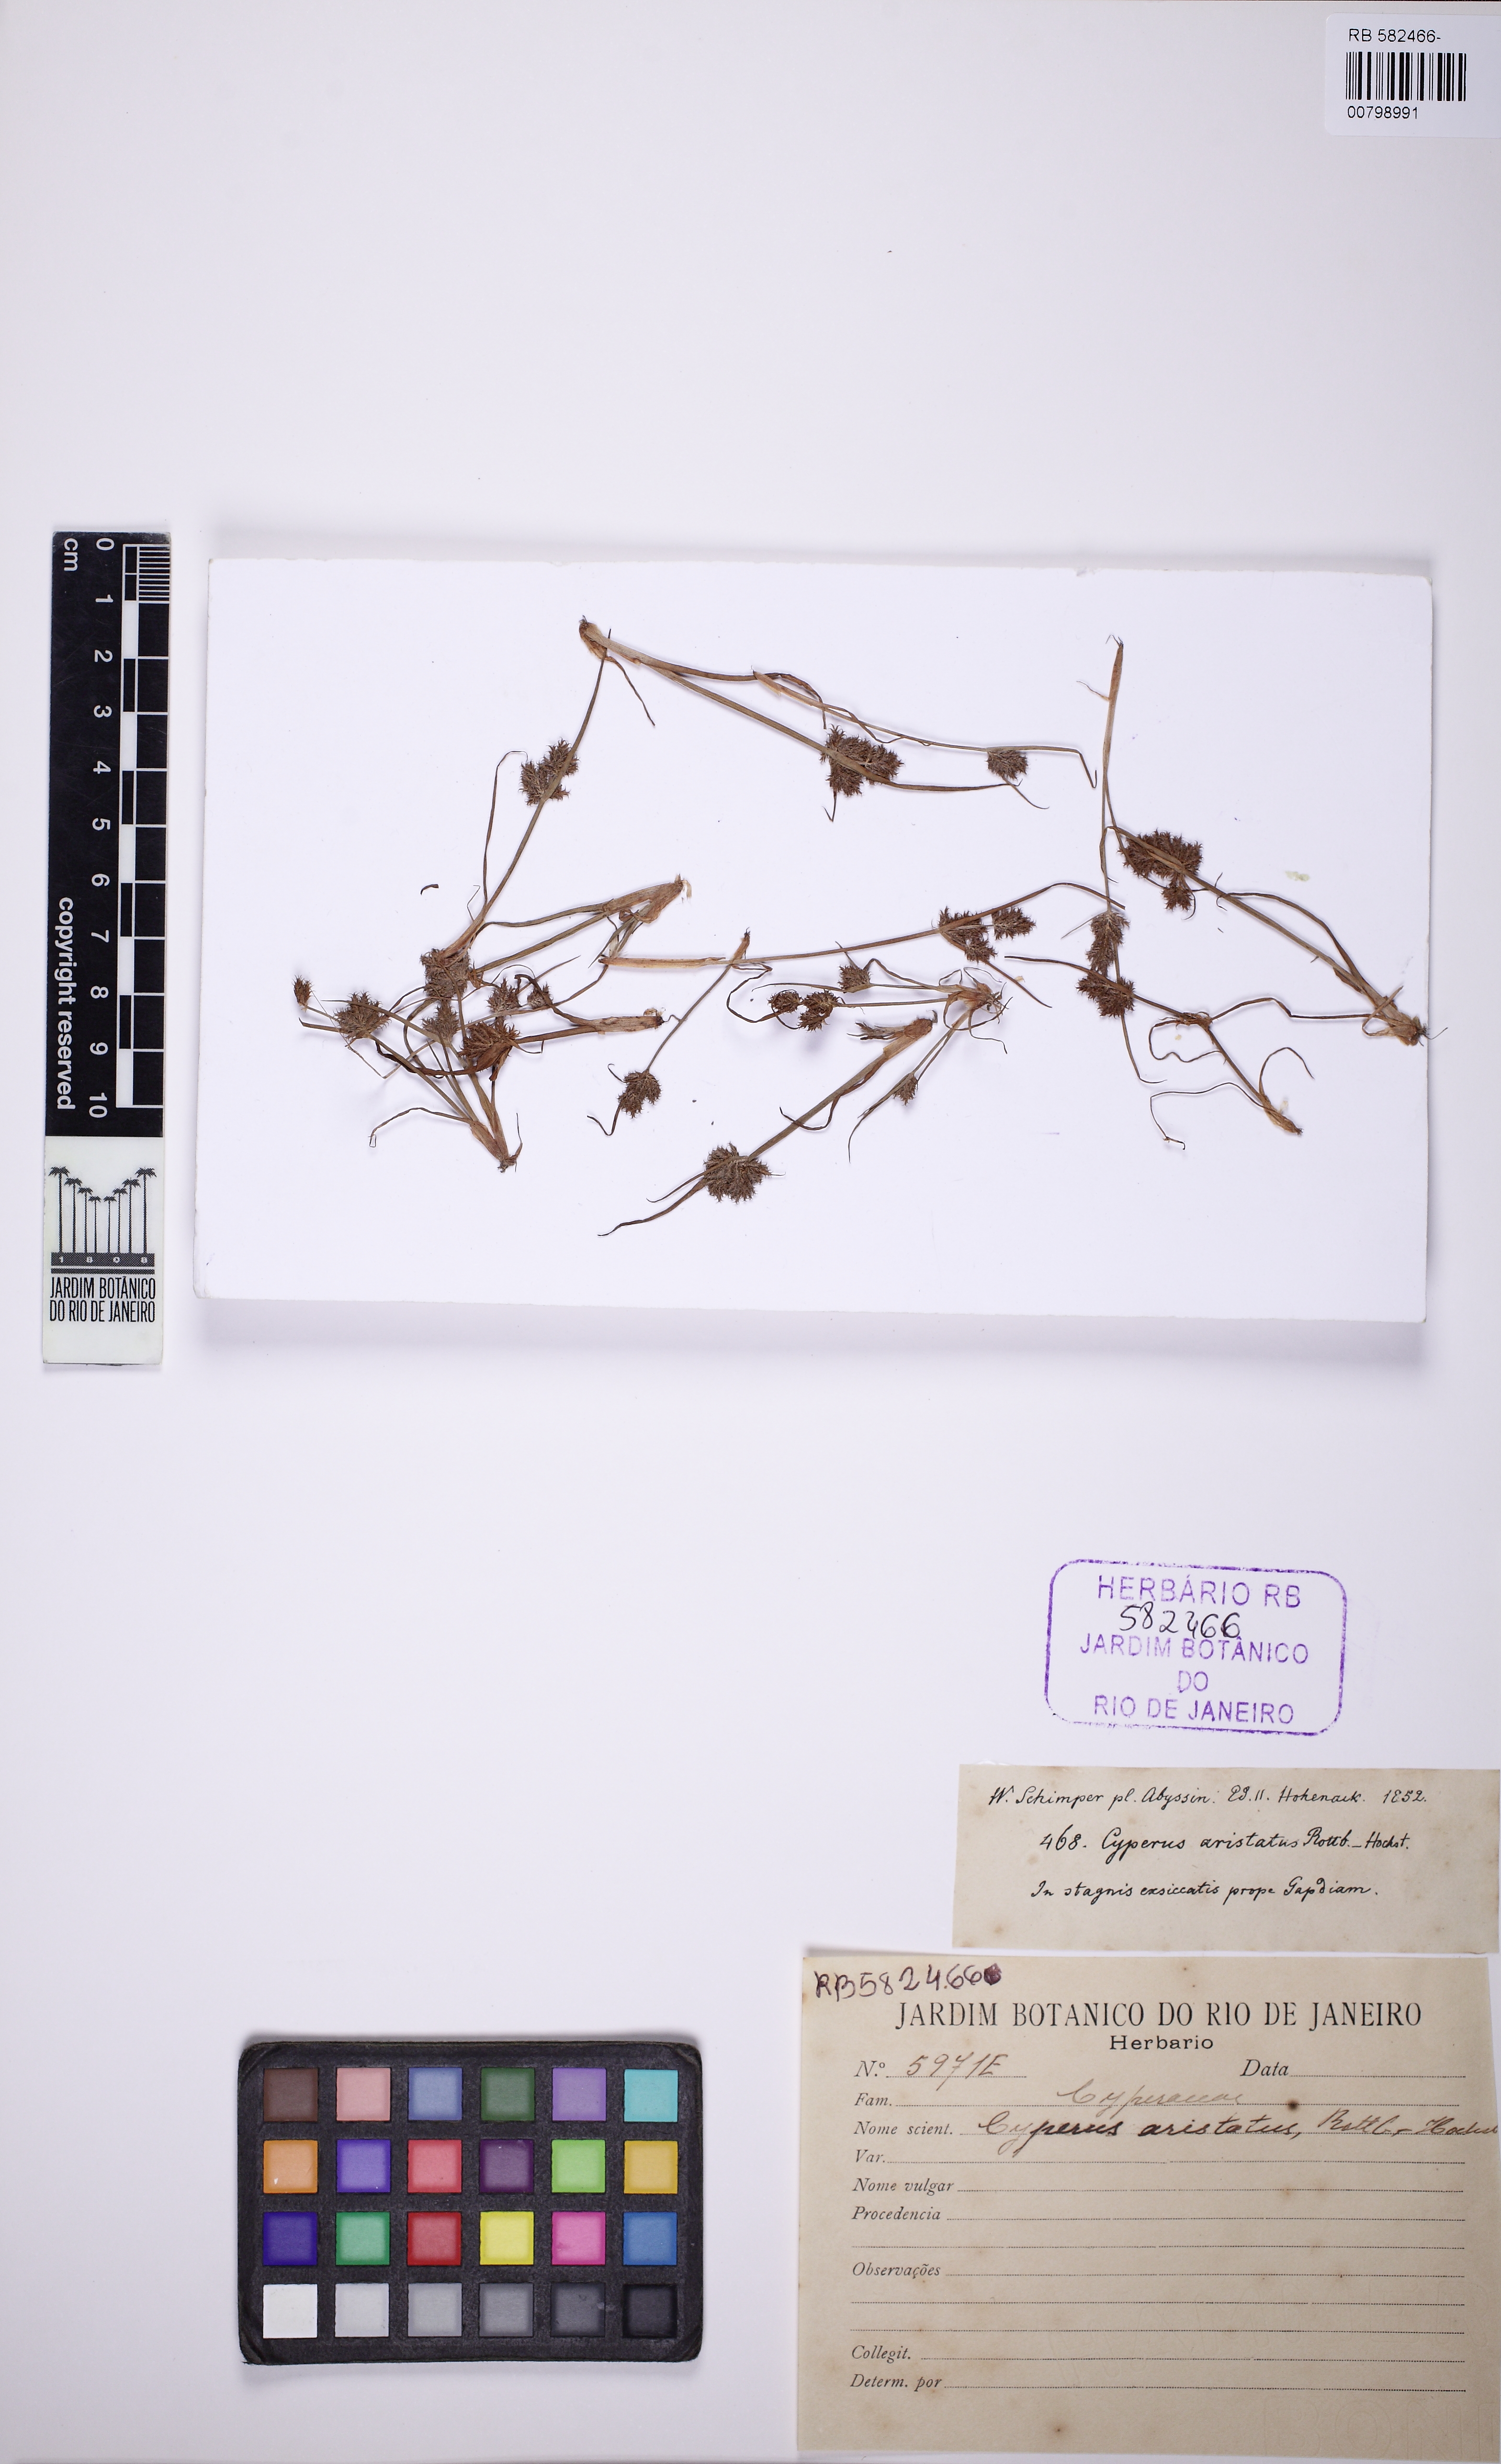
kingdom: Plantae
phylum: Tracheophyta
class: Liliopsida
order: Poales
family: Cyperaceae
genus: Cyperus
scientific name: Cyperus squarrosus
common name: Awned cyperus
